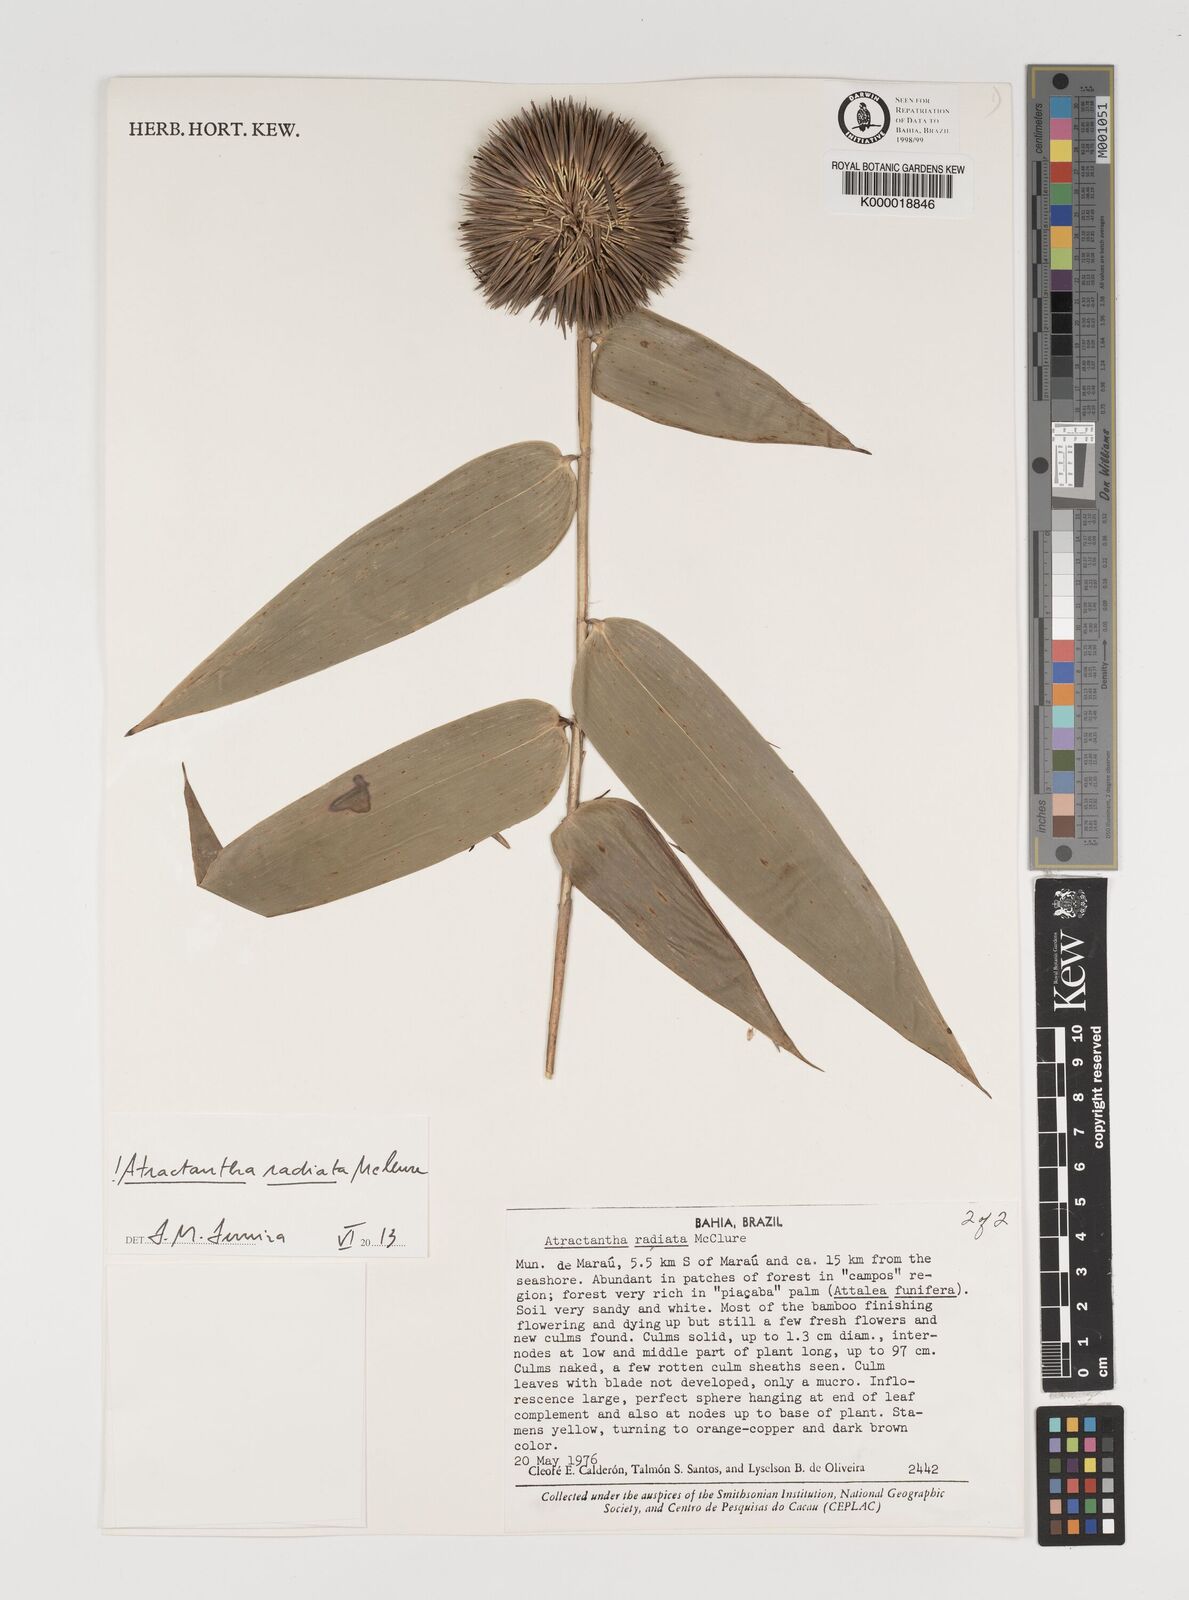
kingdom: Plantae
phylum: Tracheophyta
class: Liliopsida
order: Poales
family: Poaceae
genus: Atractantha
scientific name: Atractantha radiata
